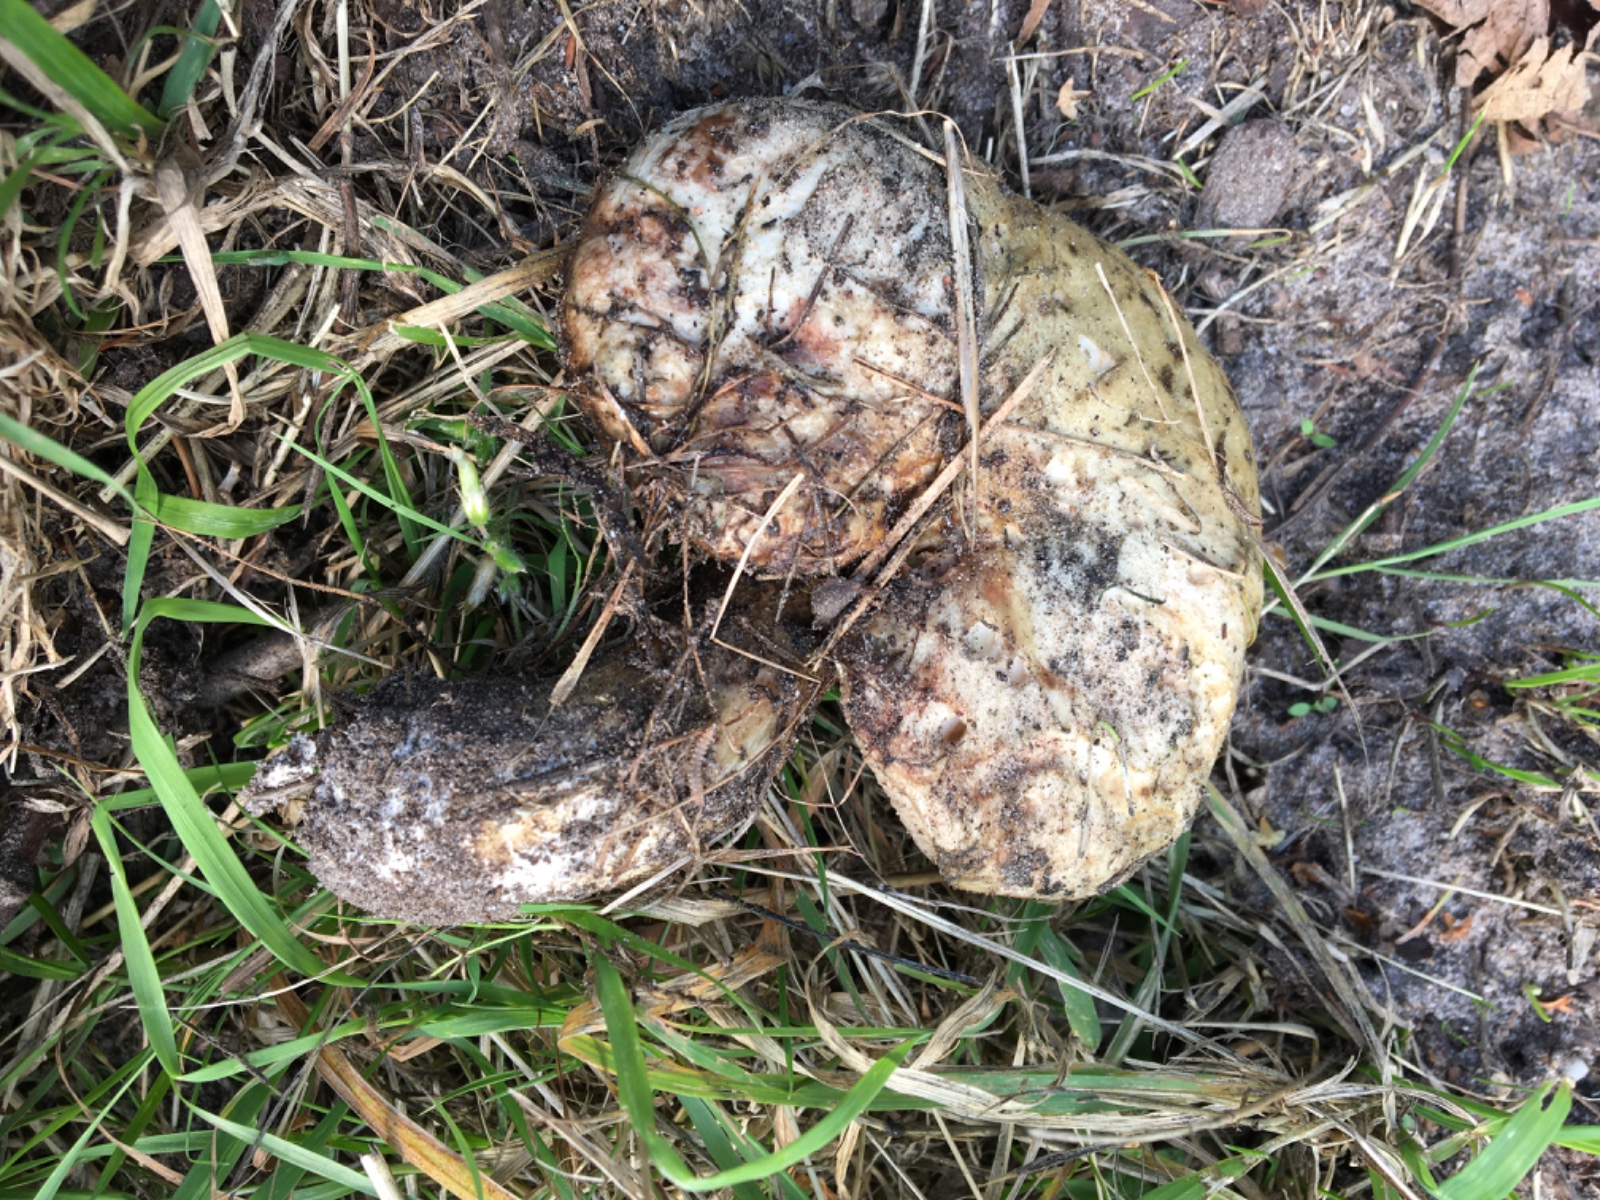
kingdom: Fungi
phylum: Basidiomycota
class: Agaricomycetes
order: Boletales
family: Suillaceae
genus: Suillus
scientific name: Suillus viscidus
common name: olivengrå slimrørhat
